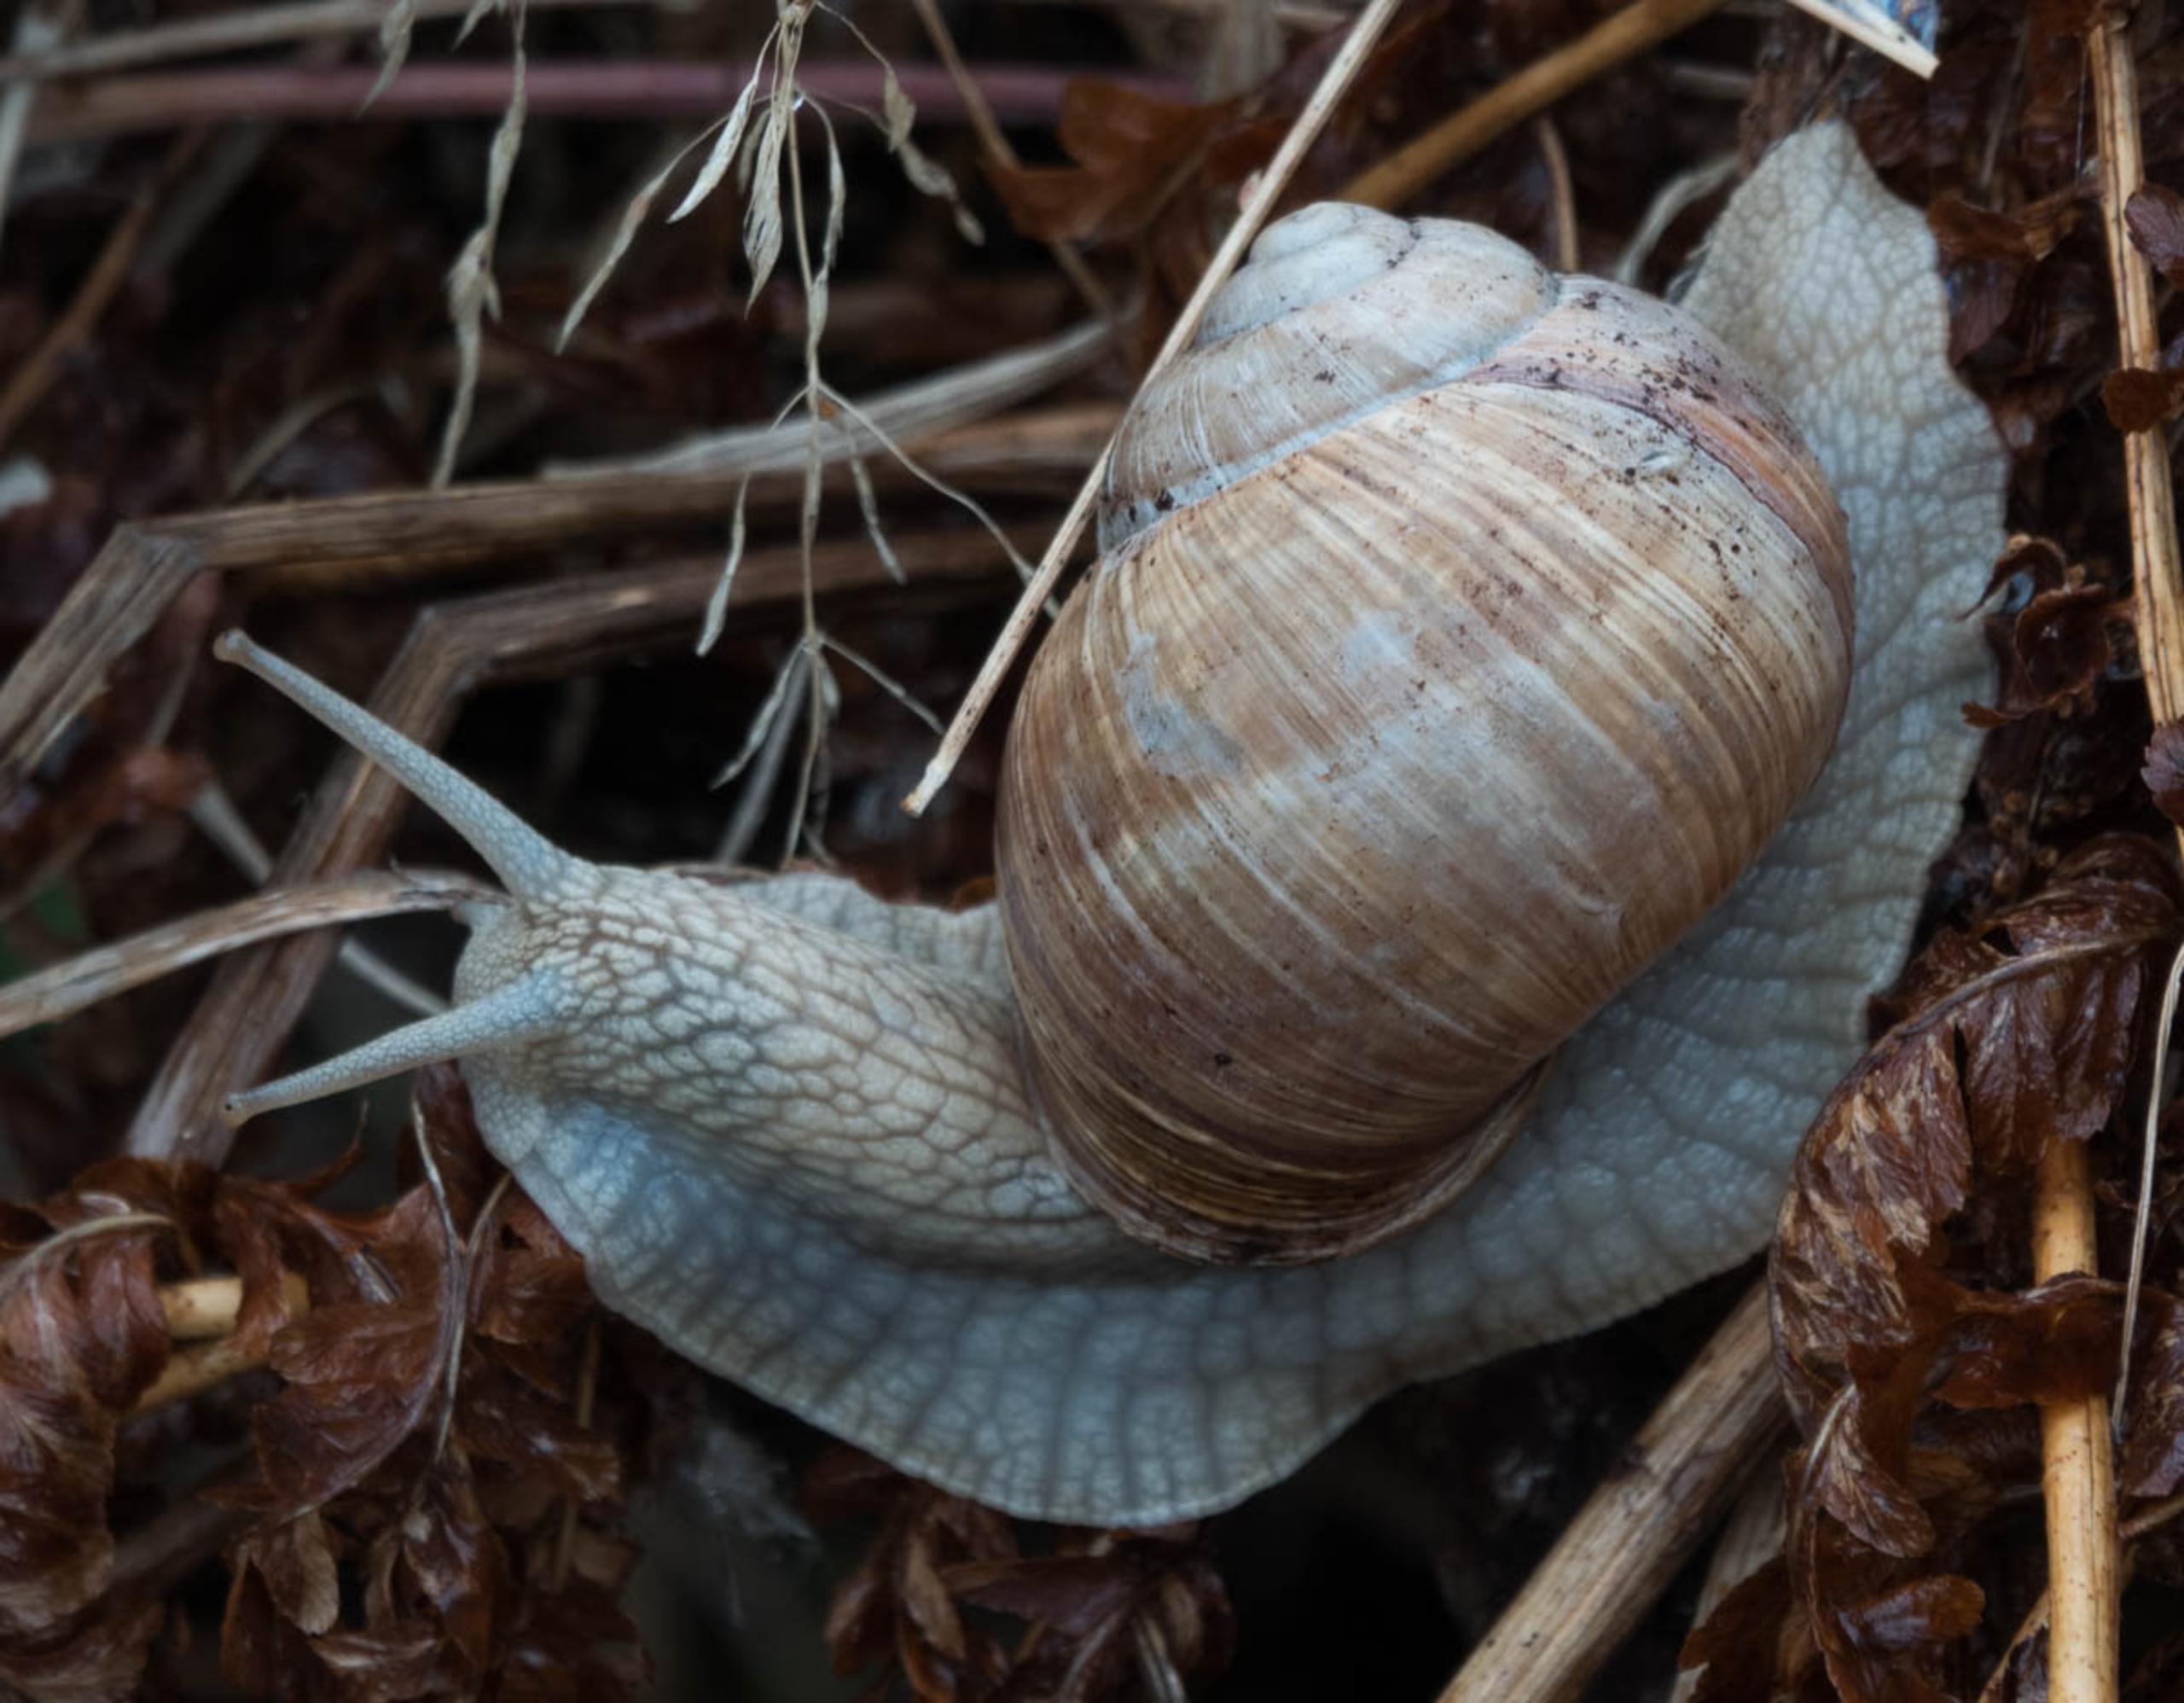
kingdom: Animalia
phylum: Mollusca
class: Gastropoda
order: Stylommatophora
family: Helicidae
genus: Helix
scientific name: Helix pomatia
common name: Vinbjergsnegl
